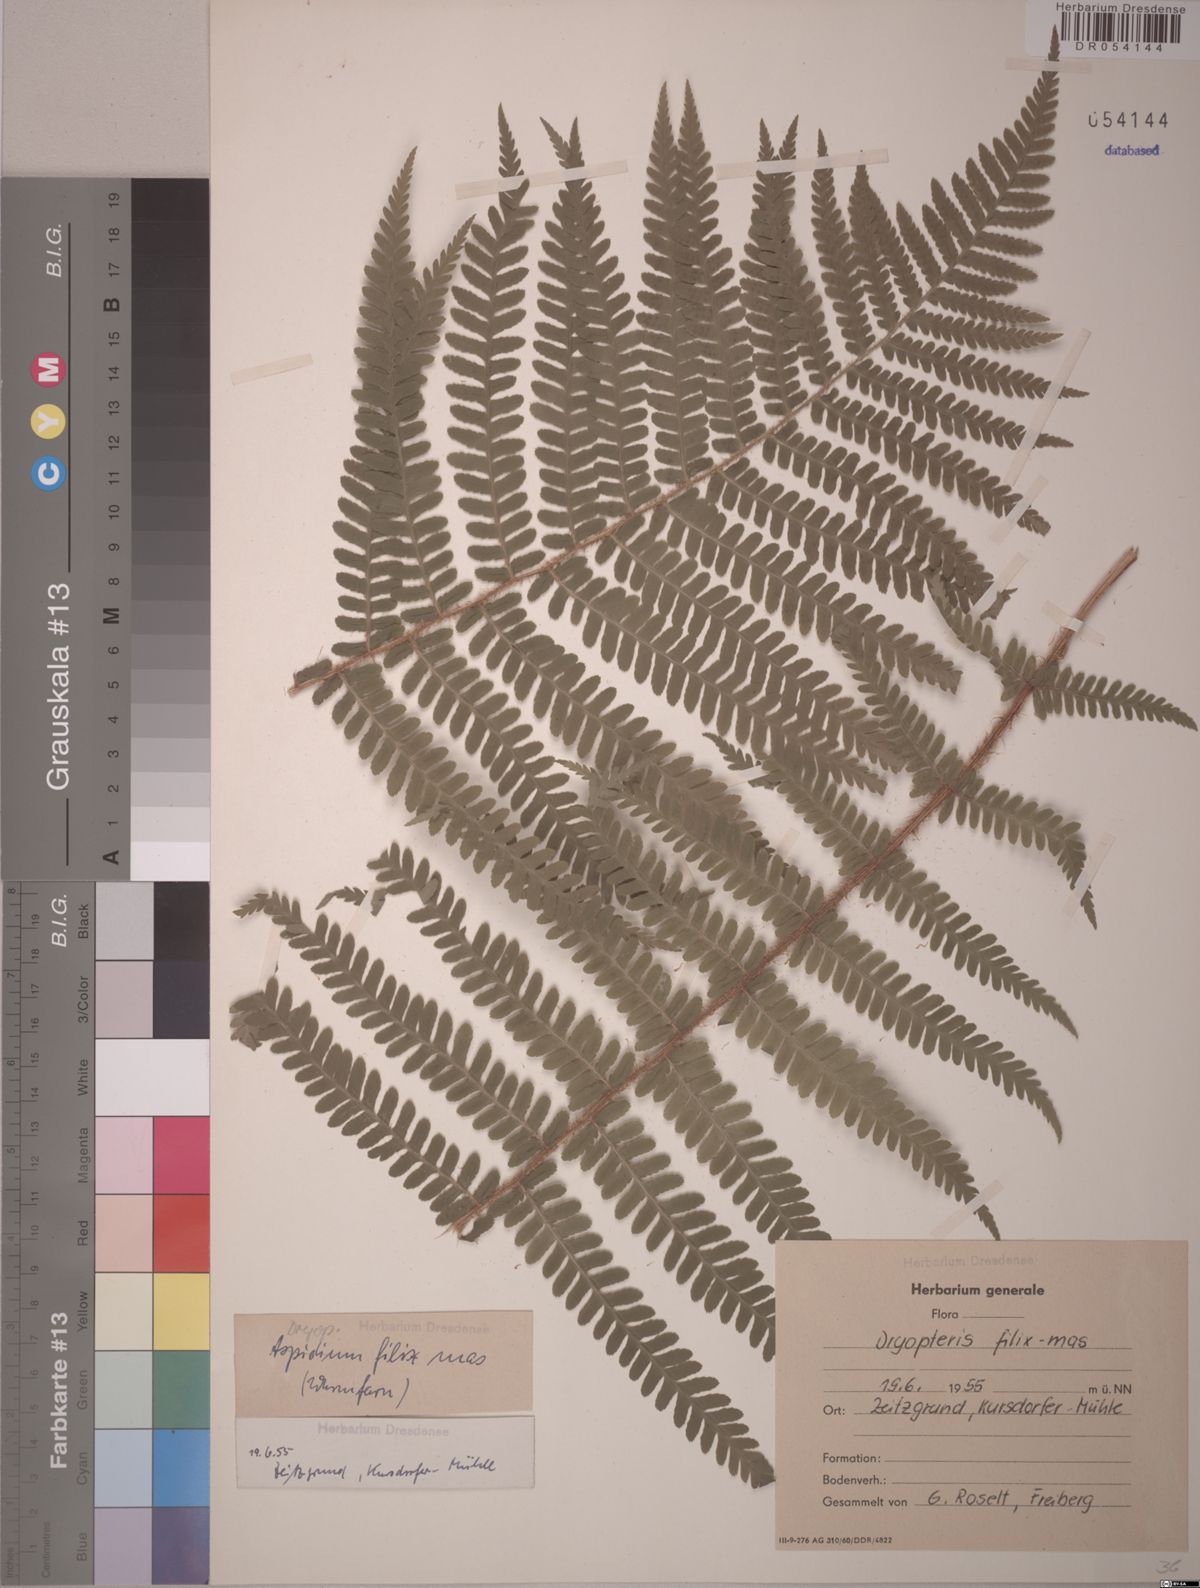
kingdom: Plantae
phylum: Tracheophyta
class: Polypodiopsida
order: Polypodiales
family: Dryopteridaceae
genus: Dryopteris
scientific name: Dryopteris filix-mas
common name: Male fern
